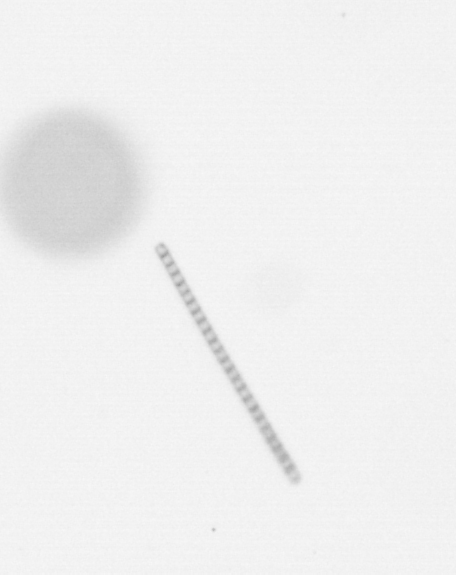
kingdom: Chromista
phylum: Ochrophyta
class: Bacillariophyceae
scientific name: Bacillariophyceae
